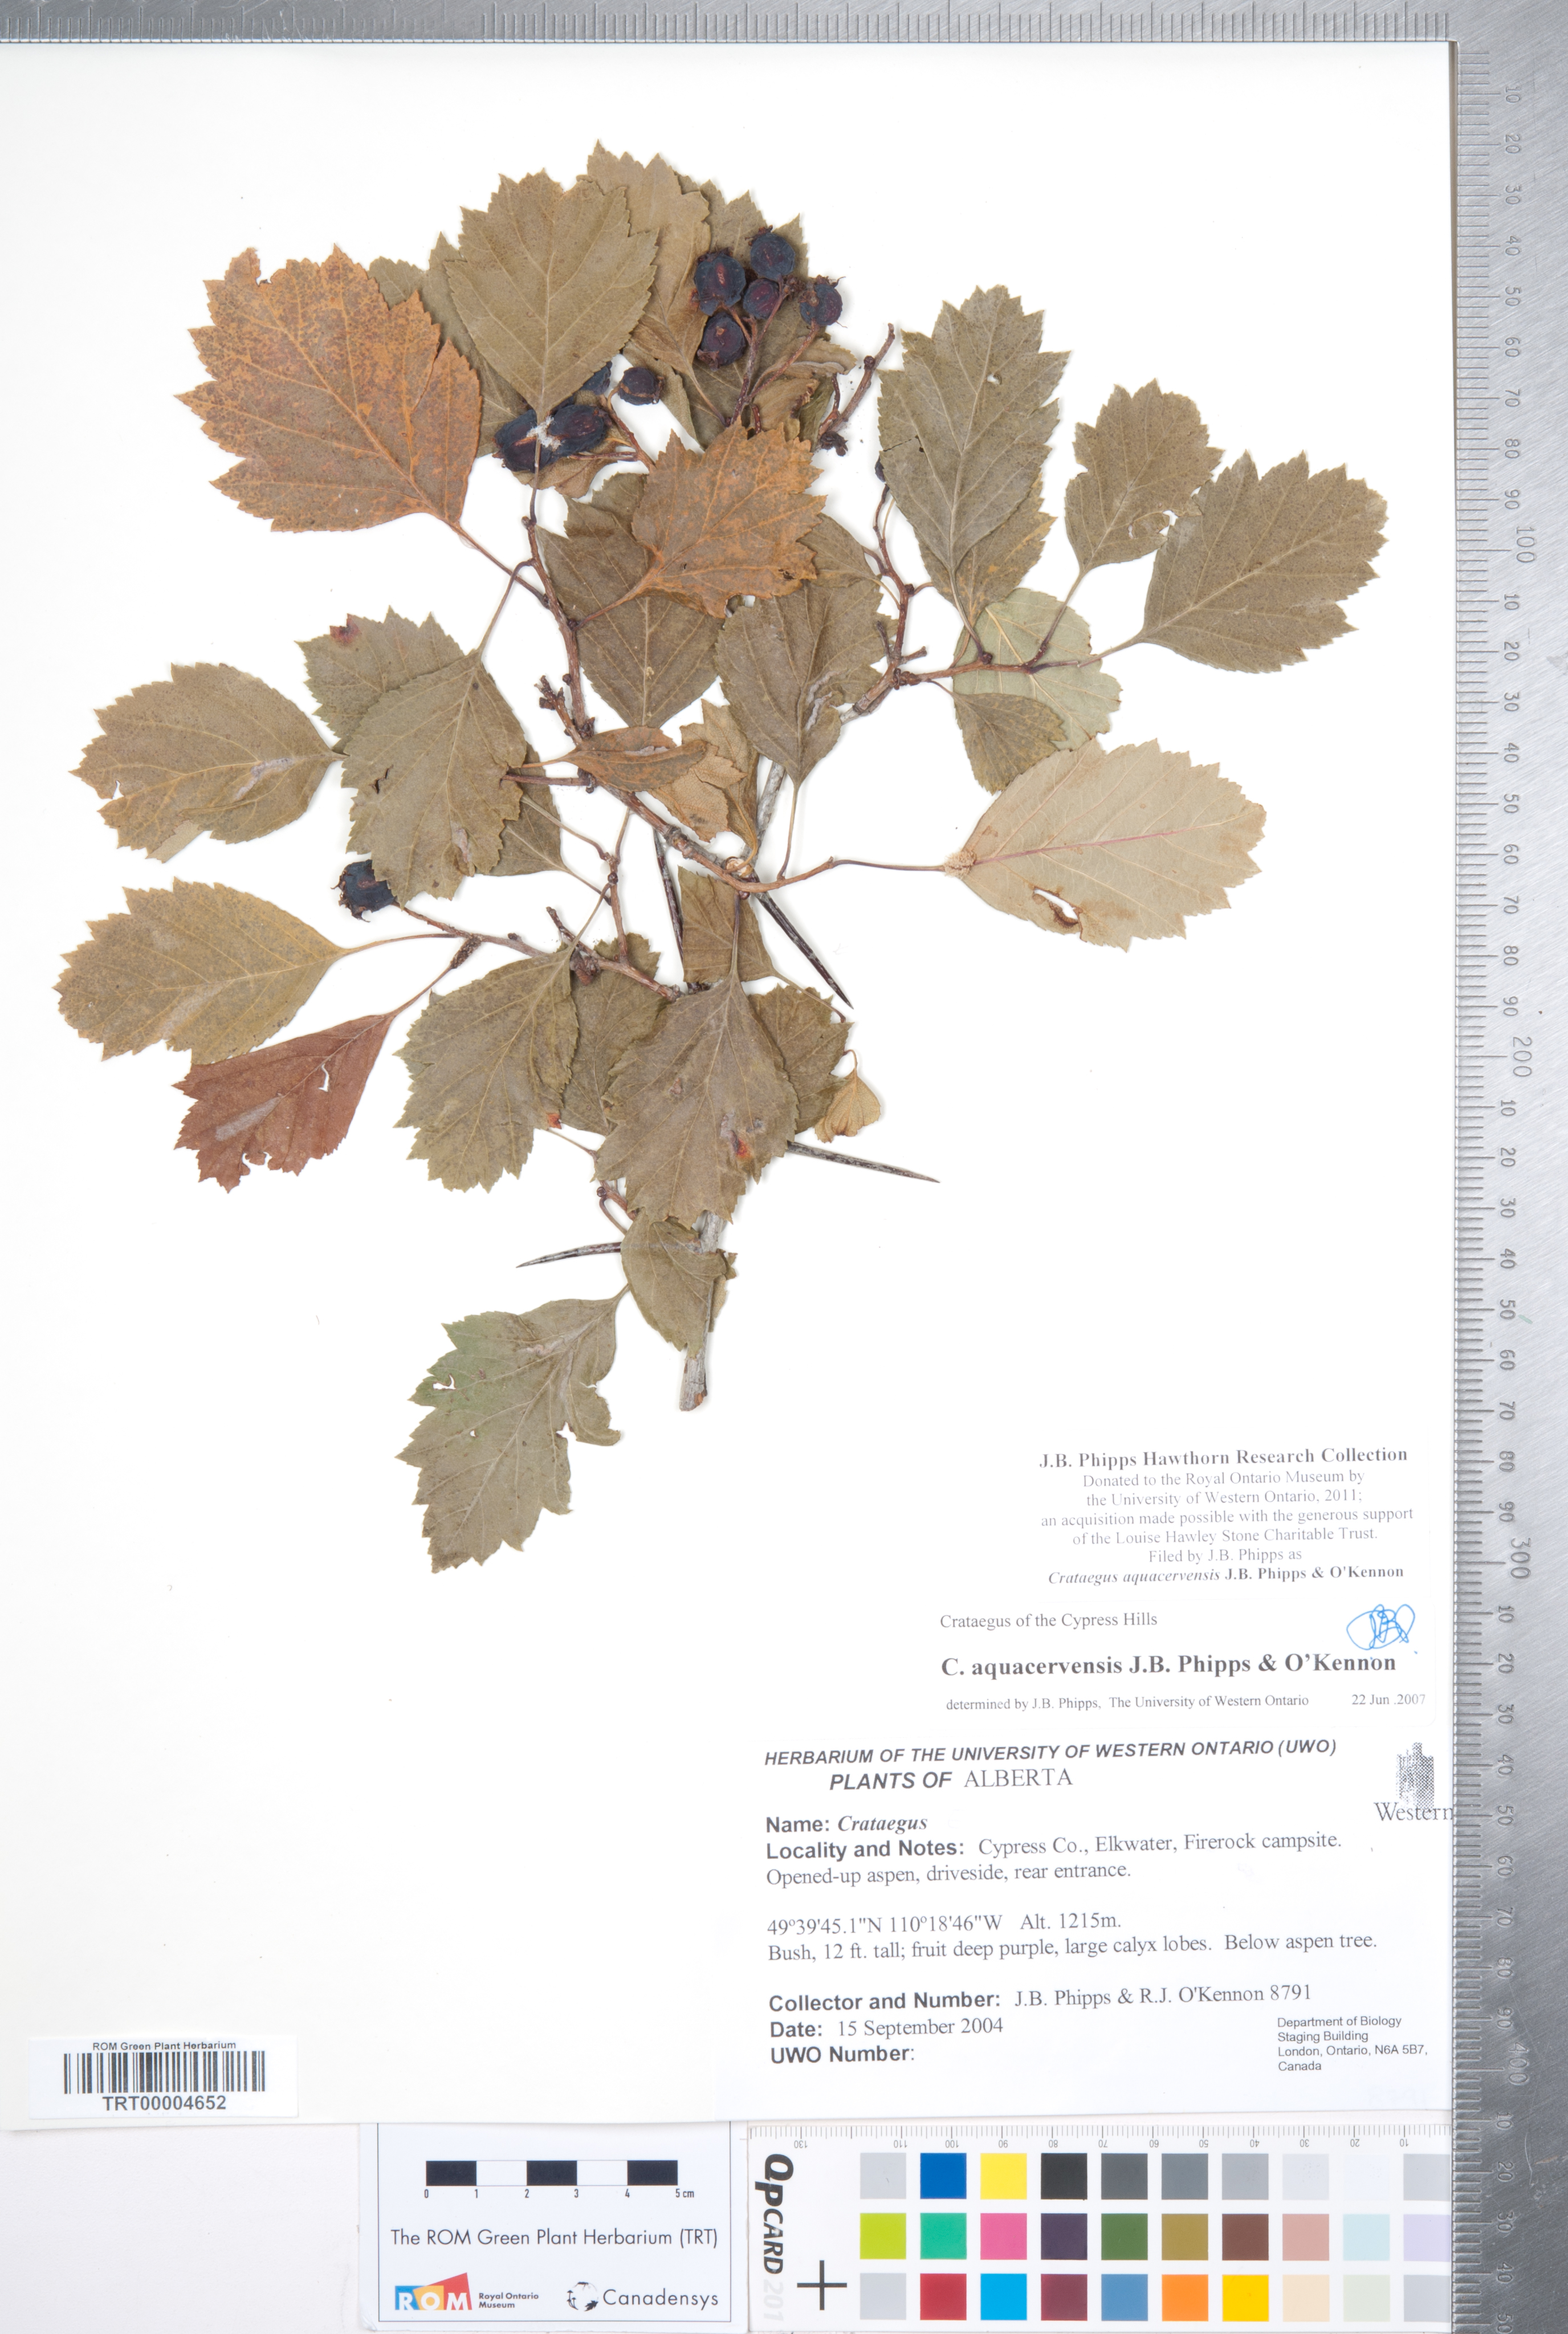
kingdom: Plantae
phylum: Tracheophyta
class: Magnoliopsida
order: Rosales
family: Rosaceae
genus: Crataegus
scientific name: Crataegus aquacervensis
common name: Elkwater hawthorn
